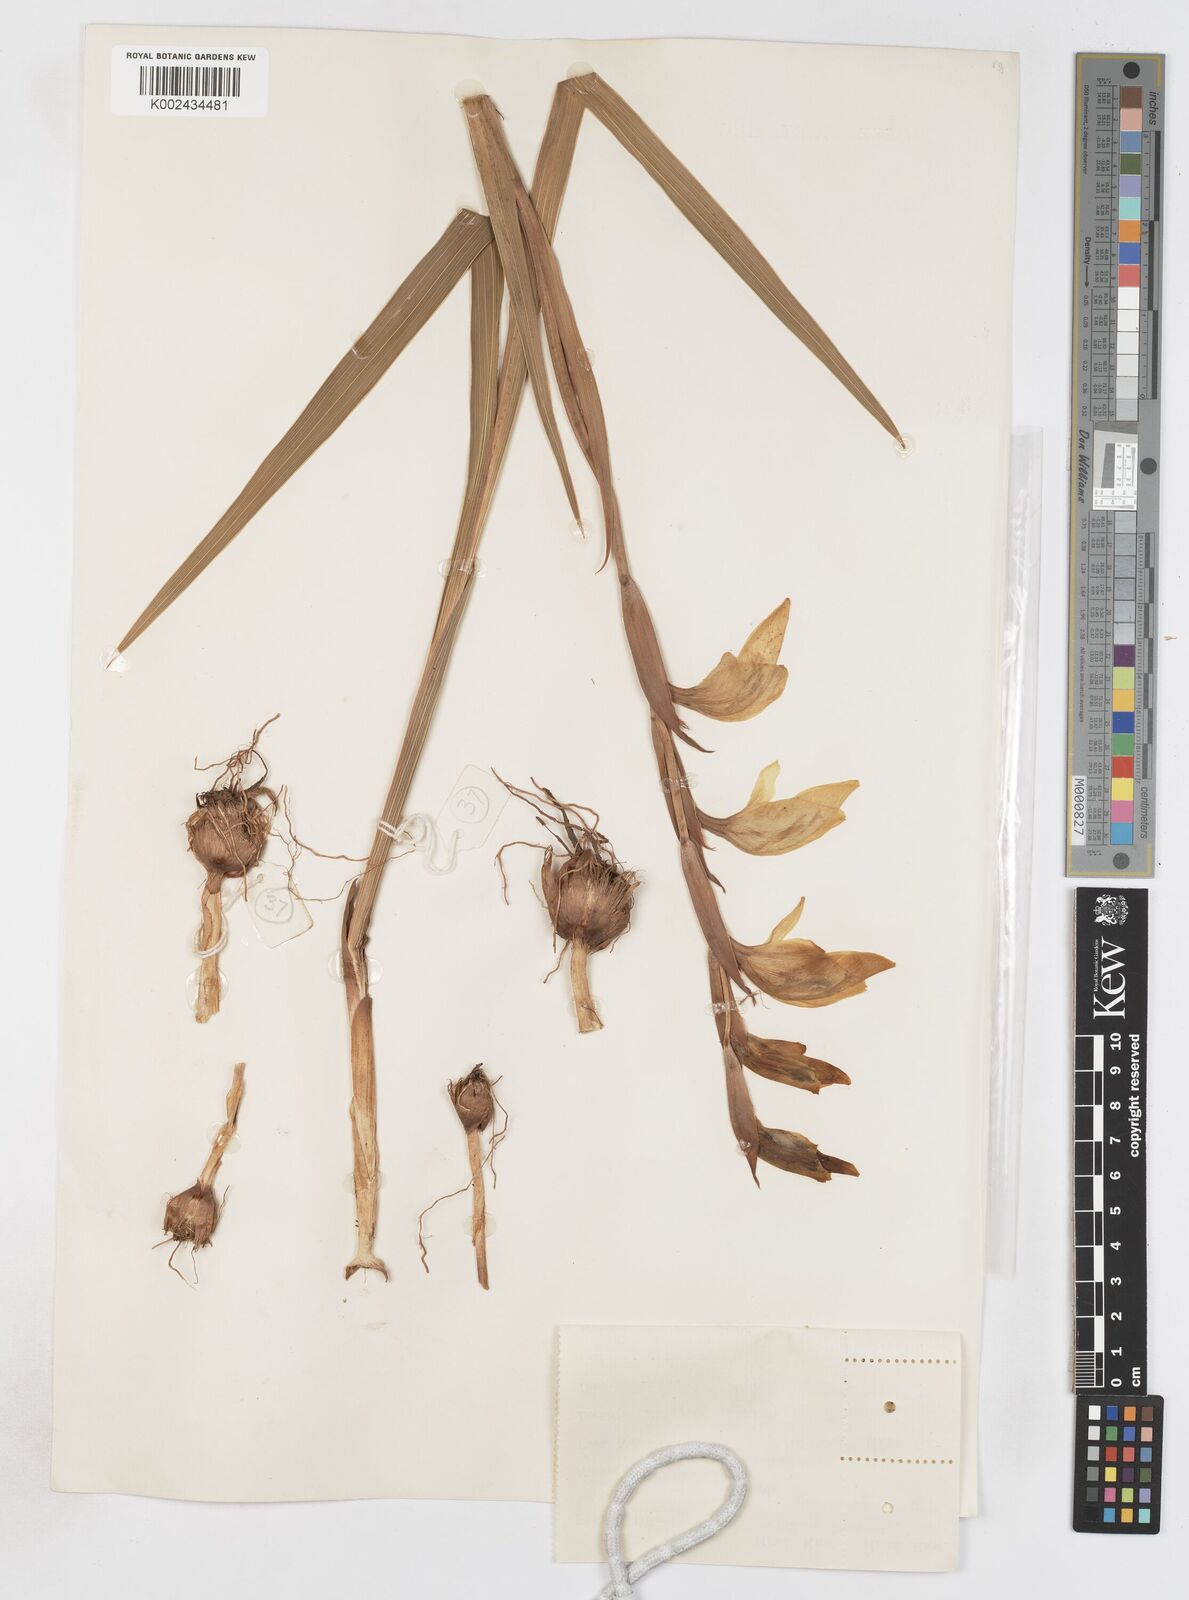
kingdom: Plantae
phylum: Tracheophyta
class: Liliopsida
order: Asparagales
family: Iridaceae
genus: Gladiolus
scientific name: Gladiolus dalenii
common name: Cornflag
